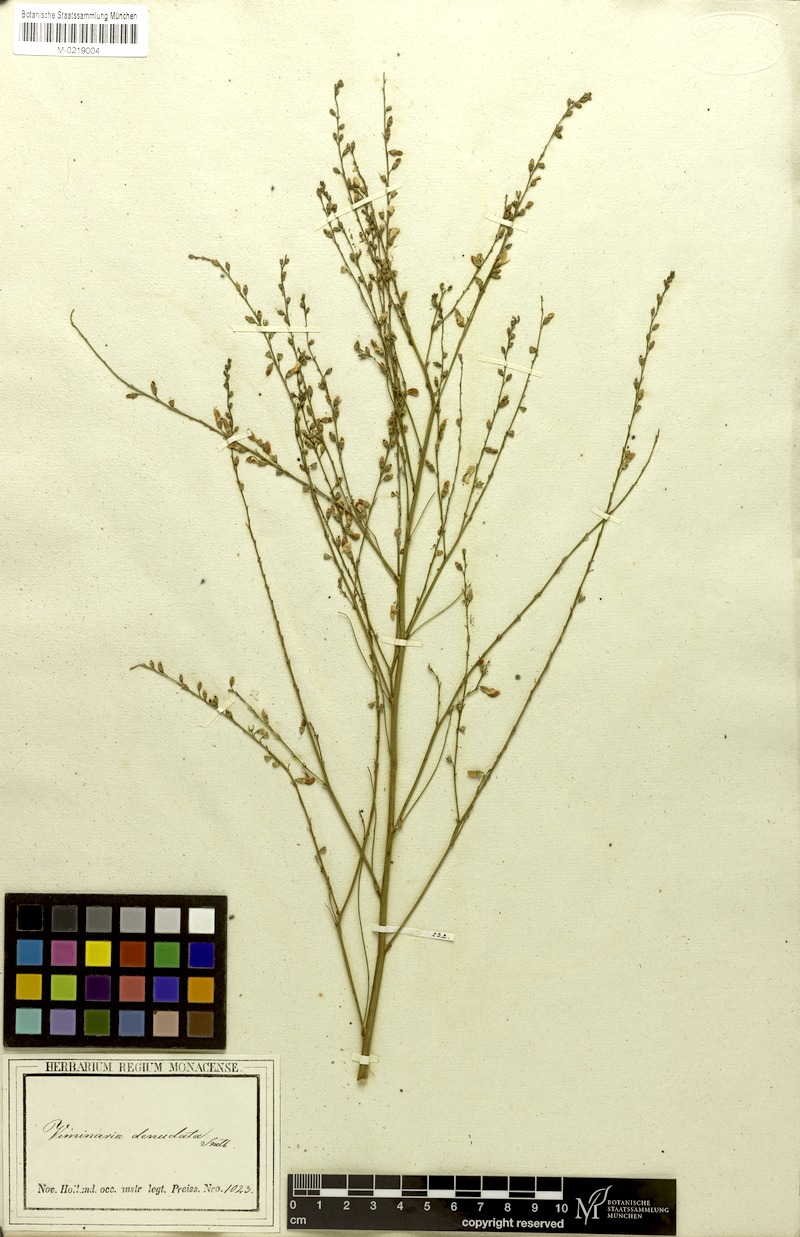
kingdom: Plantae
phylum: Tracheophyta
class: Magnoliopsida
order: Fabales
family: Fabaceae
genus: Viminaria
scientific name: Viminaria juncea
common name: Golden spray
